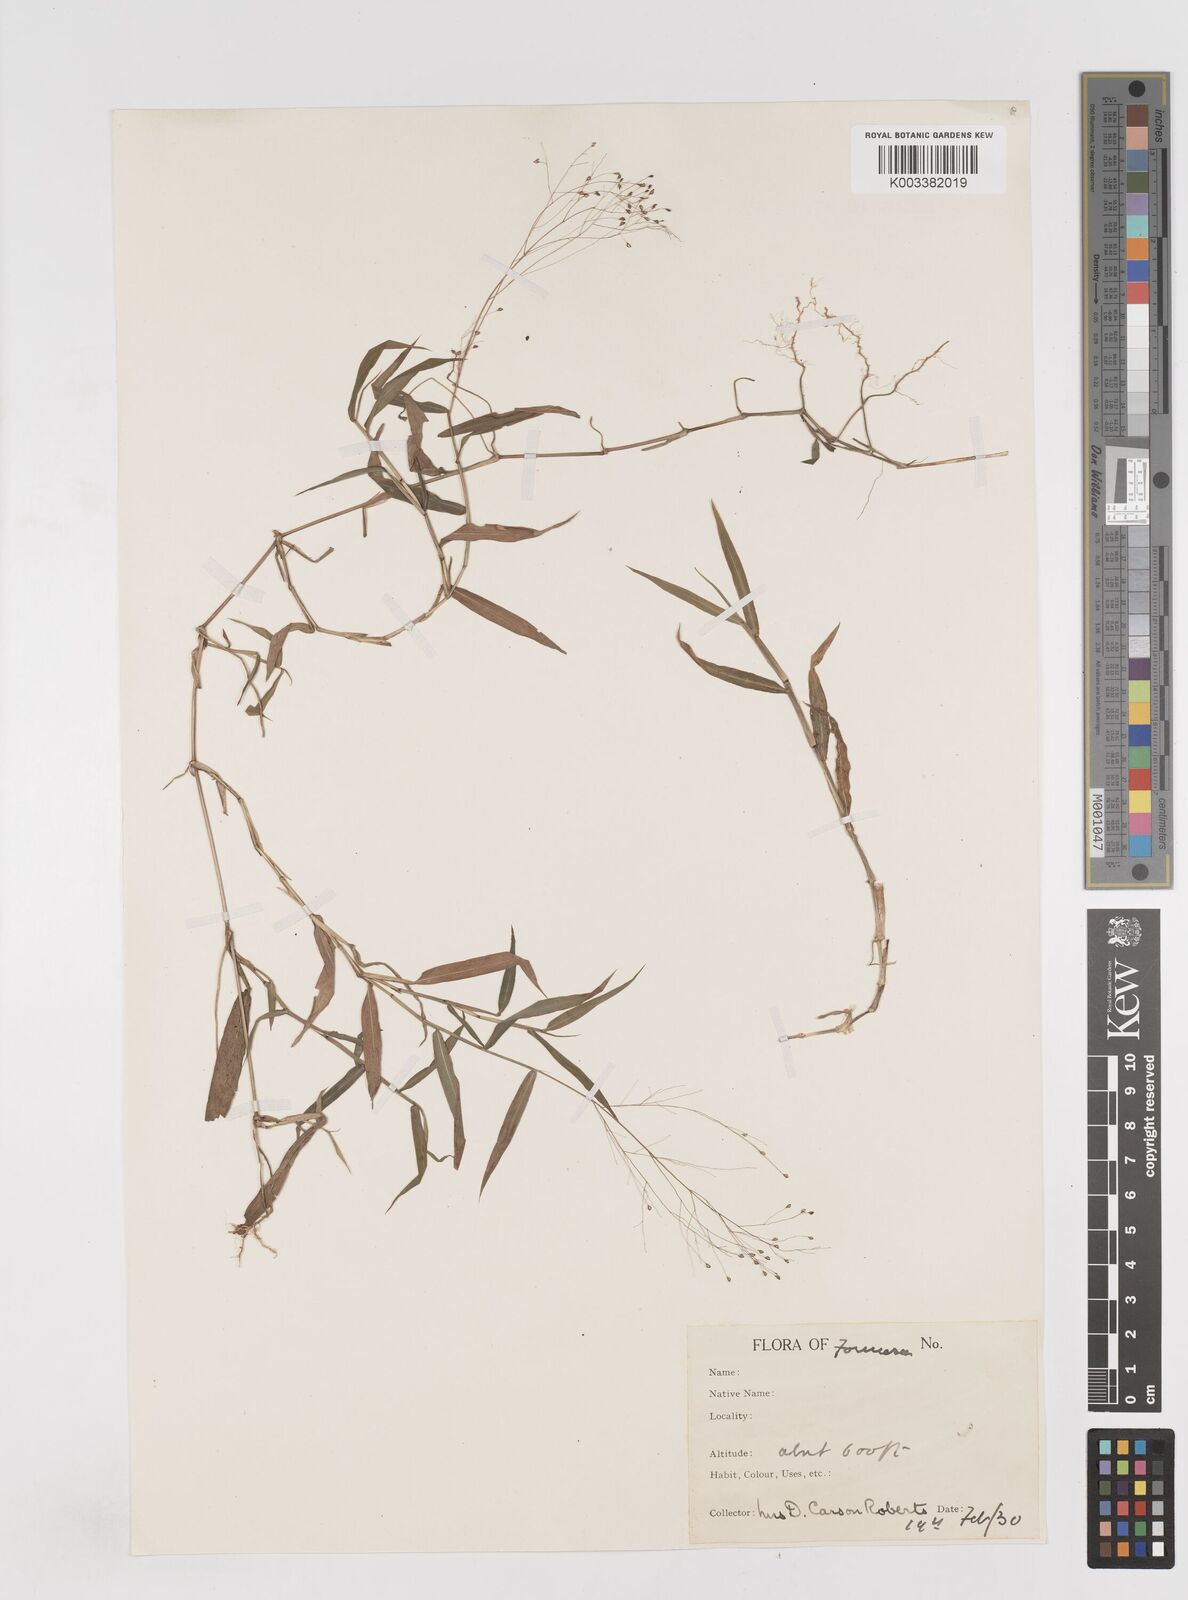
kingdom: Plantae
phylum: Tracheophyta
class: Liliopsida
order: Poales
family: Poaceae
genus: Cyrtococcum
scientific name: Cyrtococcum patens
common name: Broad-leaved bowgrass
